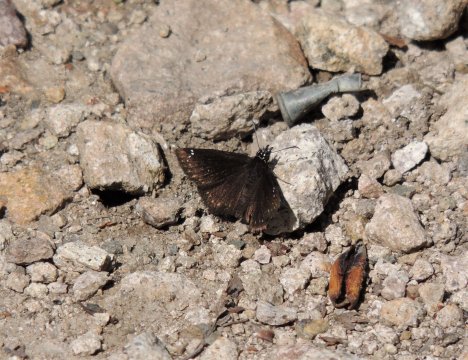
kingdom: Animalia
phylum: Arthropoda
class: Insecta
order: Lepidoptera
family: Hesperiidae
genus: Pholisora
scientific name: Pholisora catullus
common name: Common Sootywing
